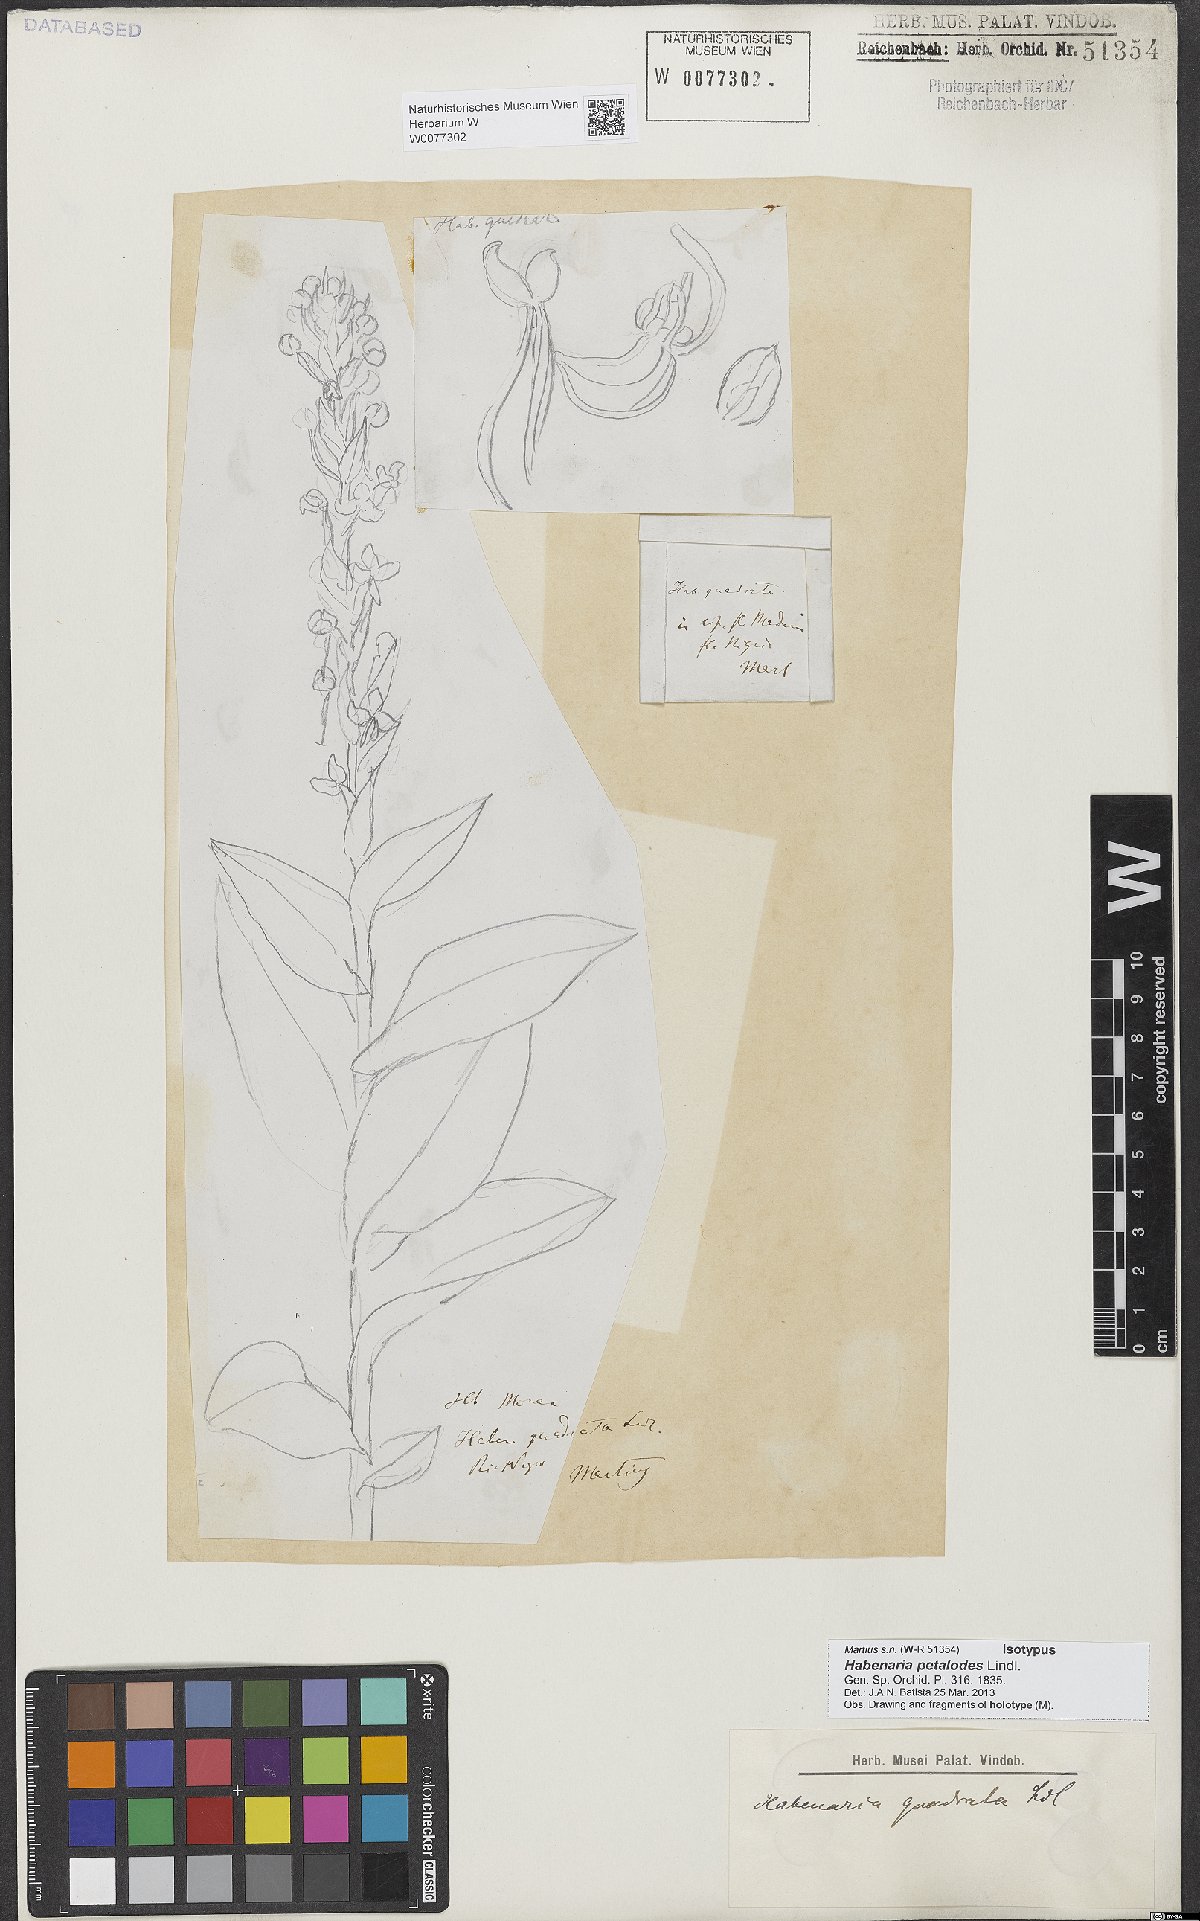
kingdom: Plantae
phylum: Tracheophyta
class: Liliopsida
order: Asparagales
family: Orchidaceae
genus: Habenaria
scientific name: Habenaria petalodes
